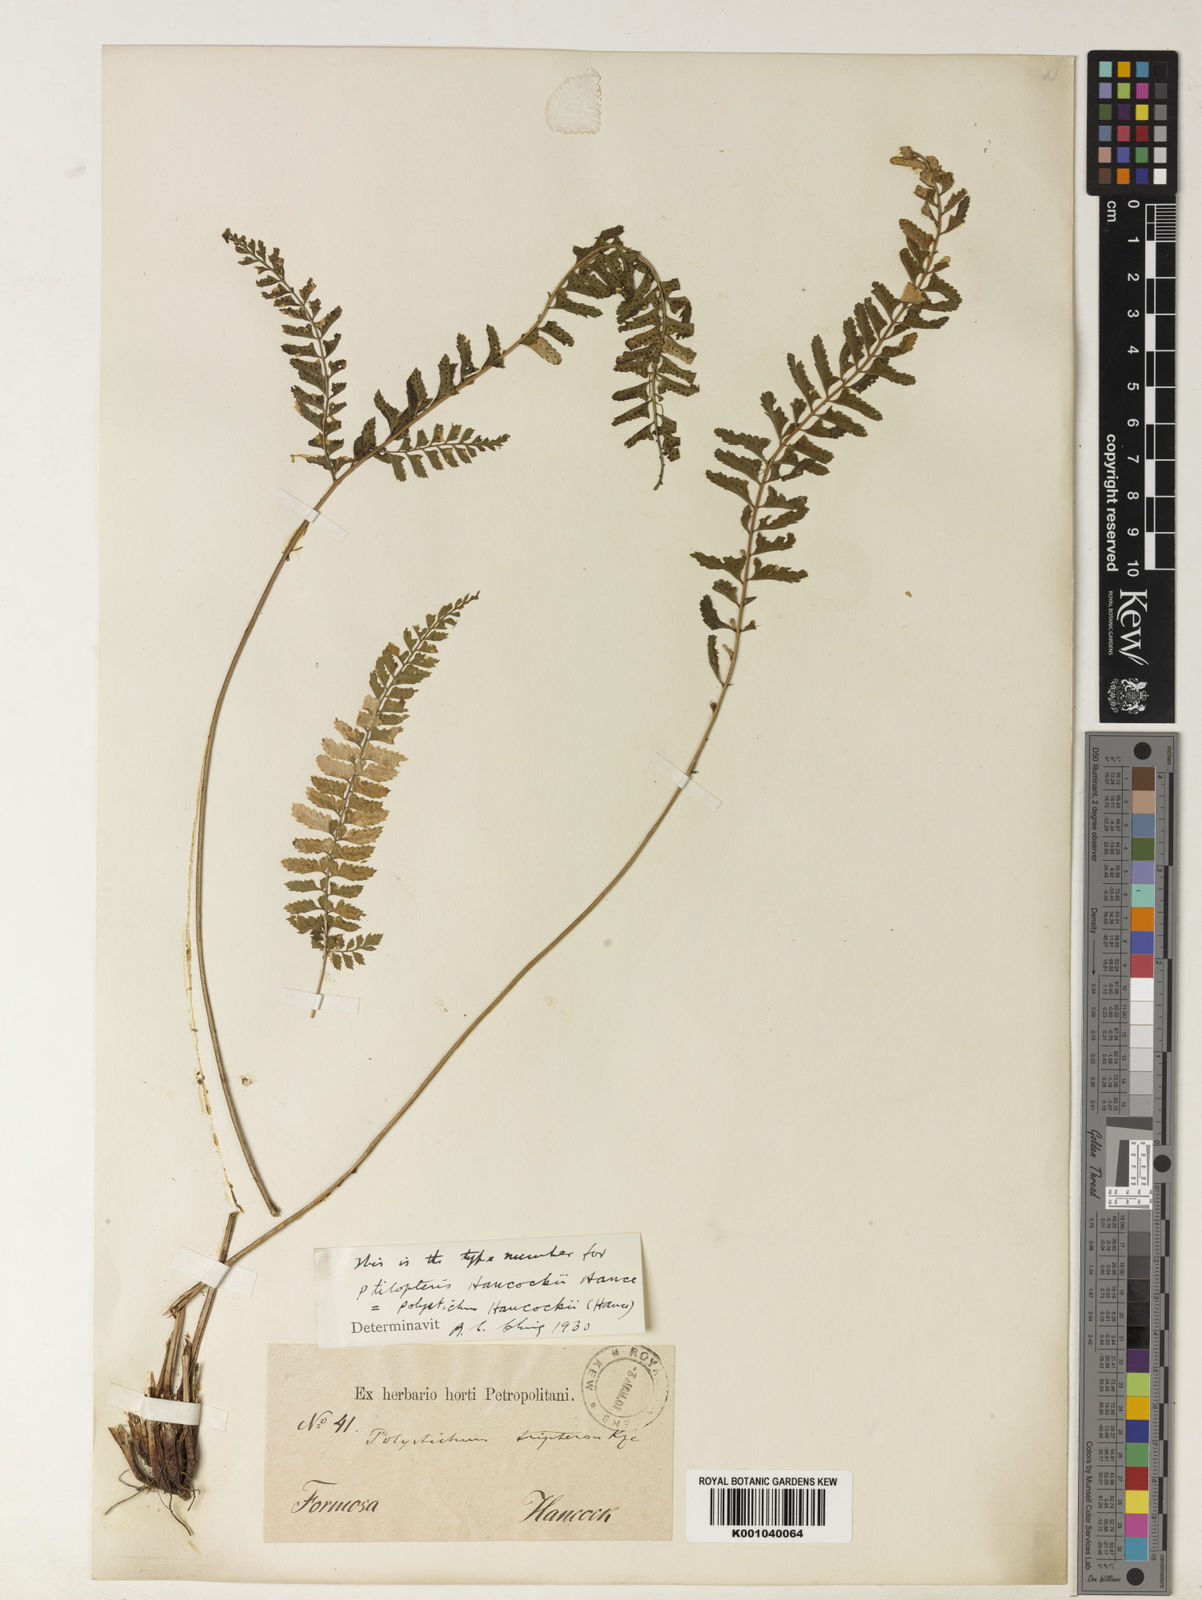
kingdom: Plantae
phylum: Tracheophyta
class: Polypodiopsida
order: Polypodiales
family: Dryopteridaceae
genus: Polystichum
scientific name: Polystichum hancockii
